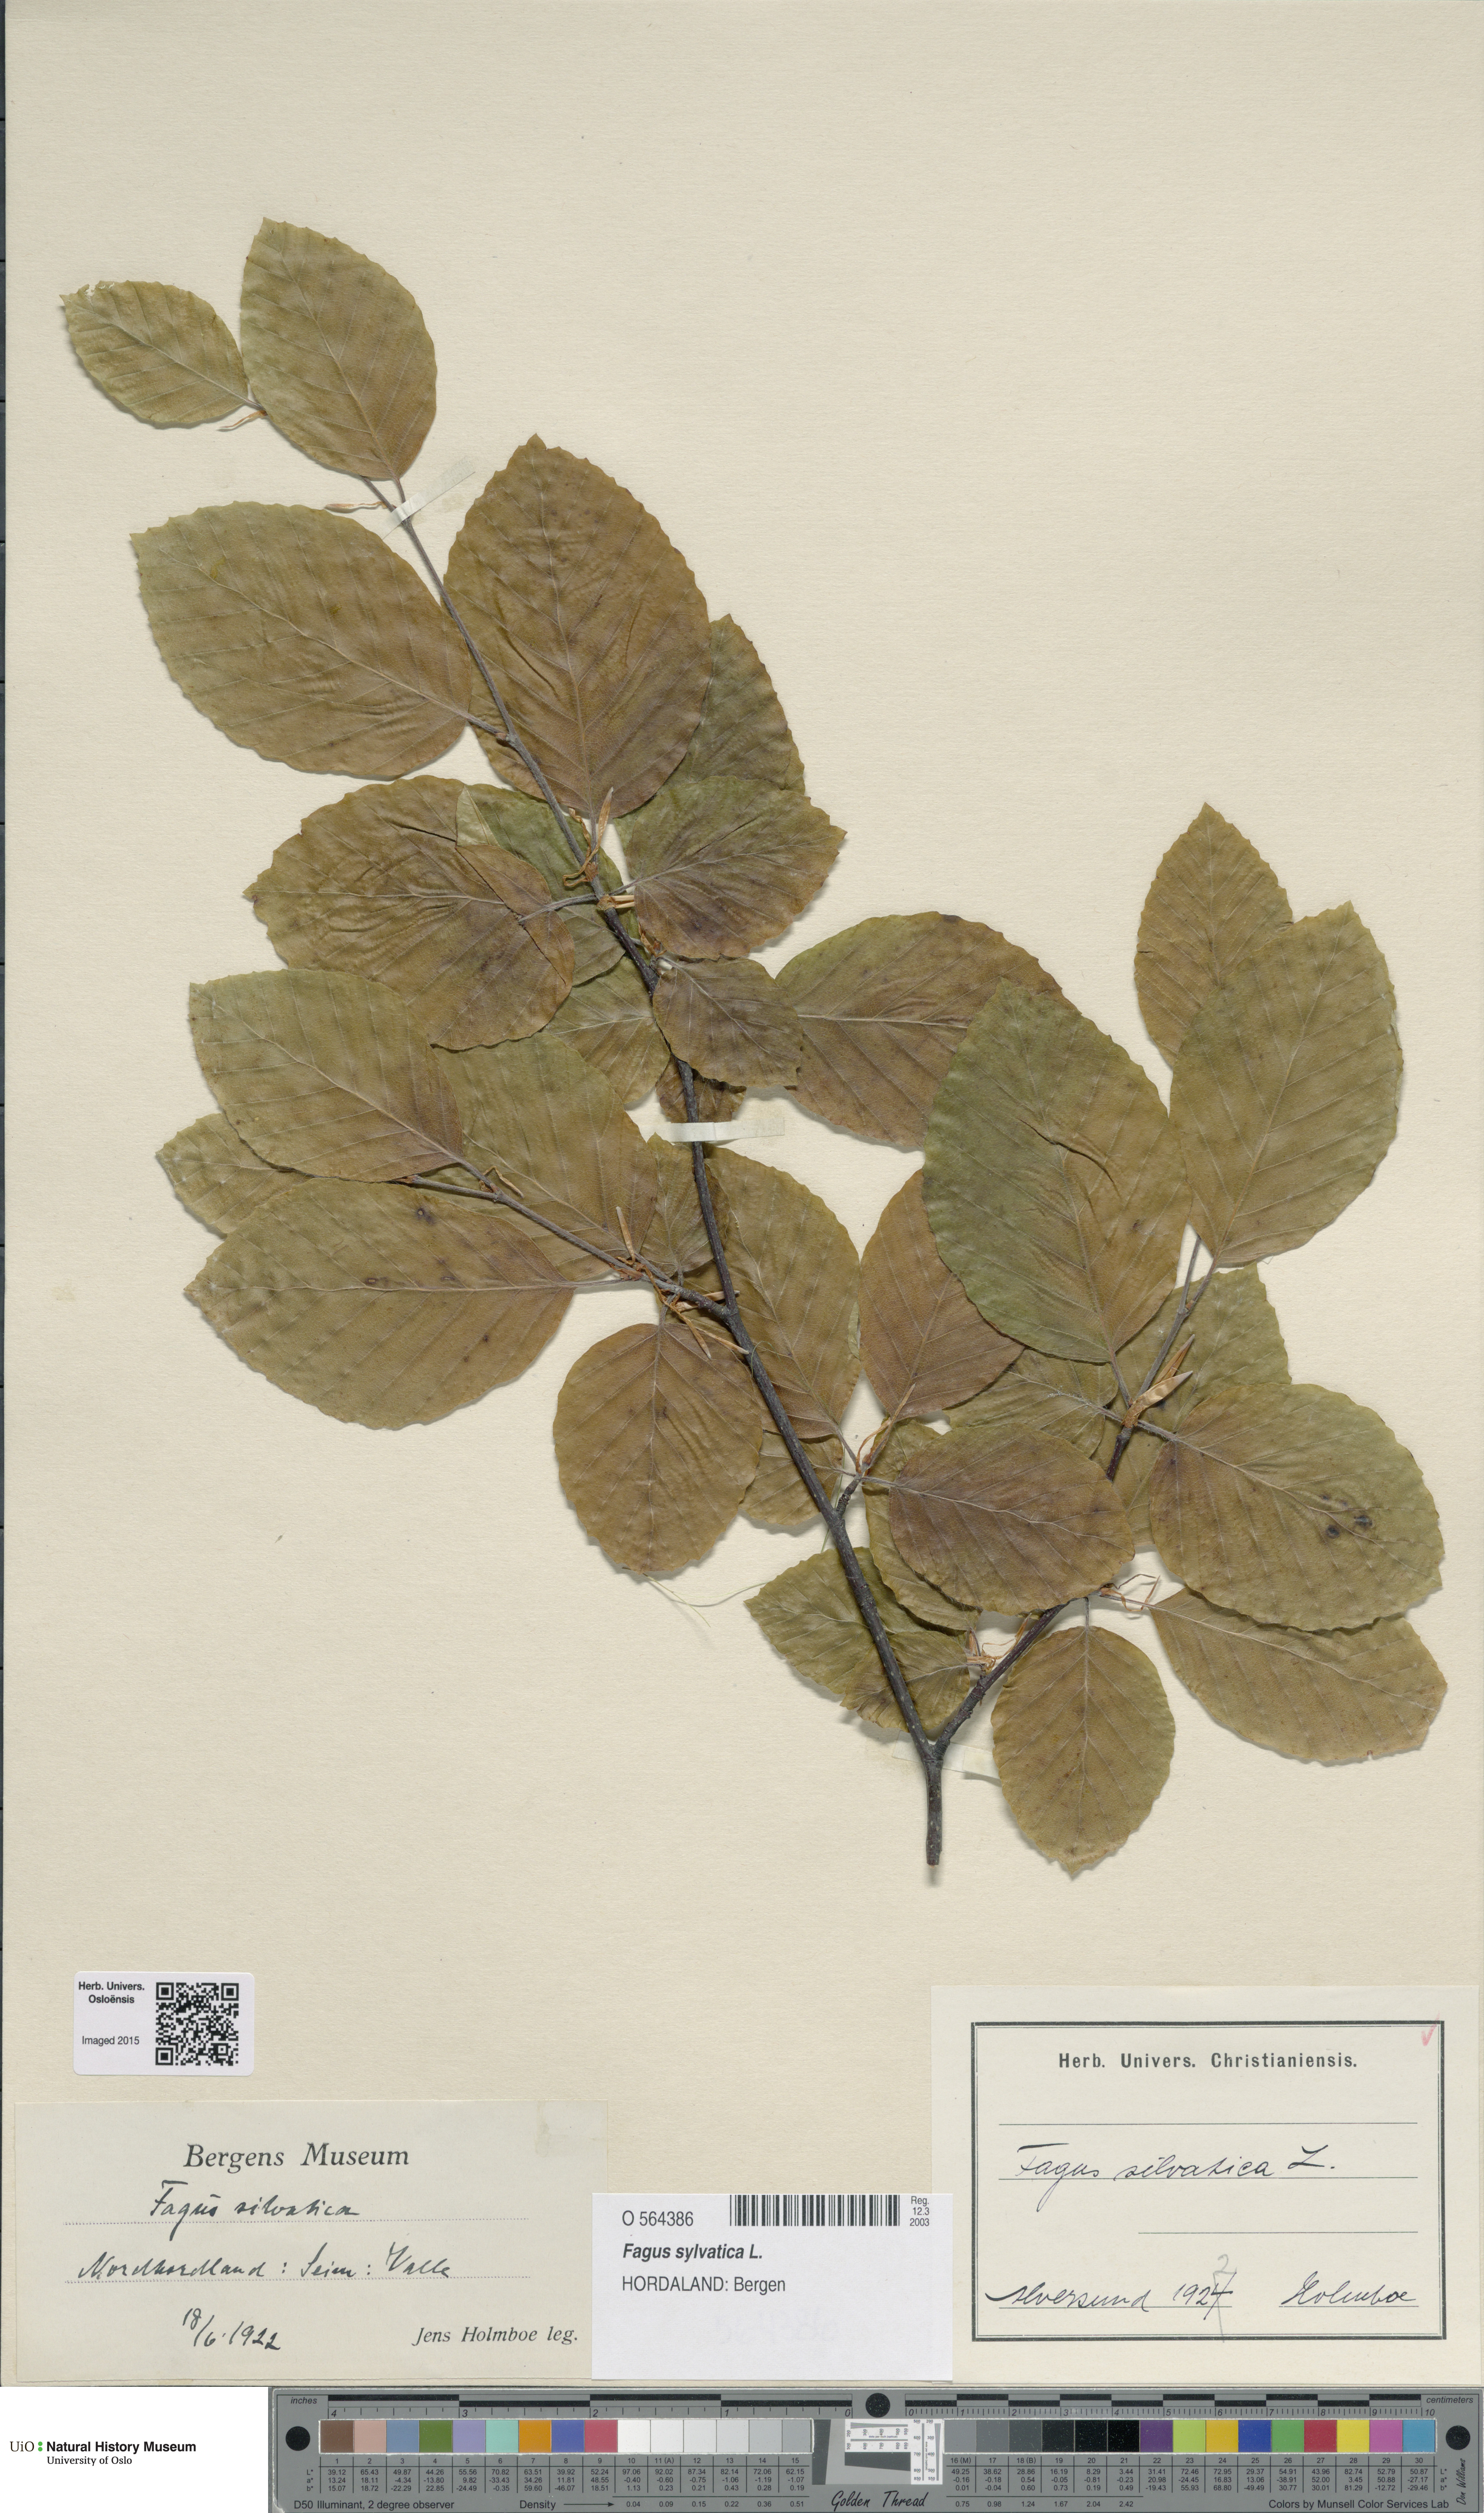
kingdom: Plantae
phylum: Tracheophyta
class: Magnoliopsida
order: Fagales
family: Fagaceae
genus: Fagus
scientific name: Fagus sylvatica
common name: Beech
